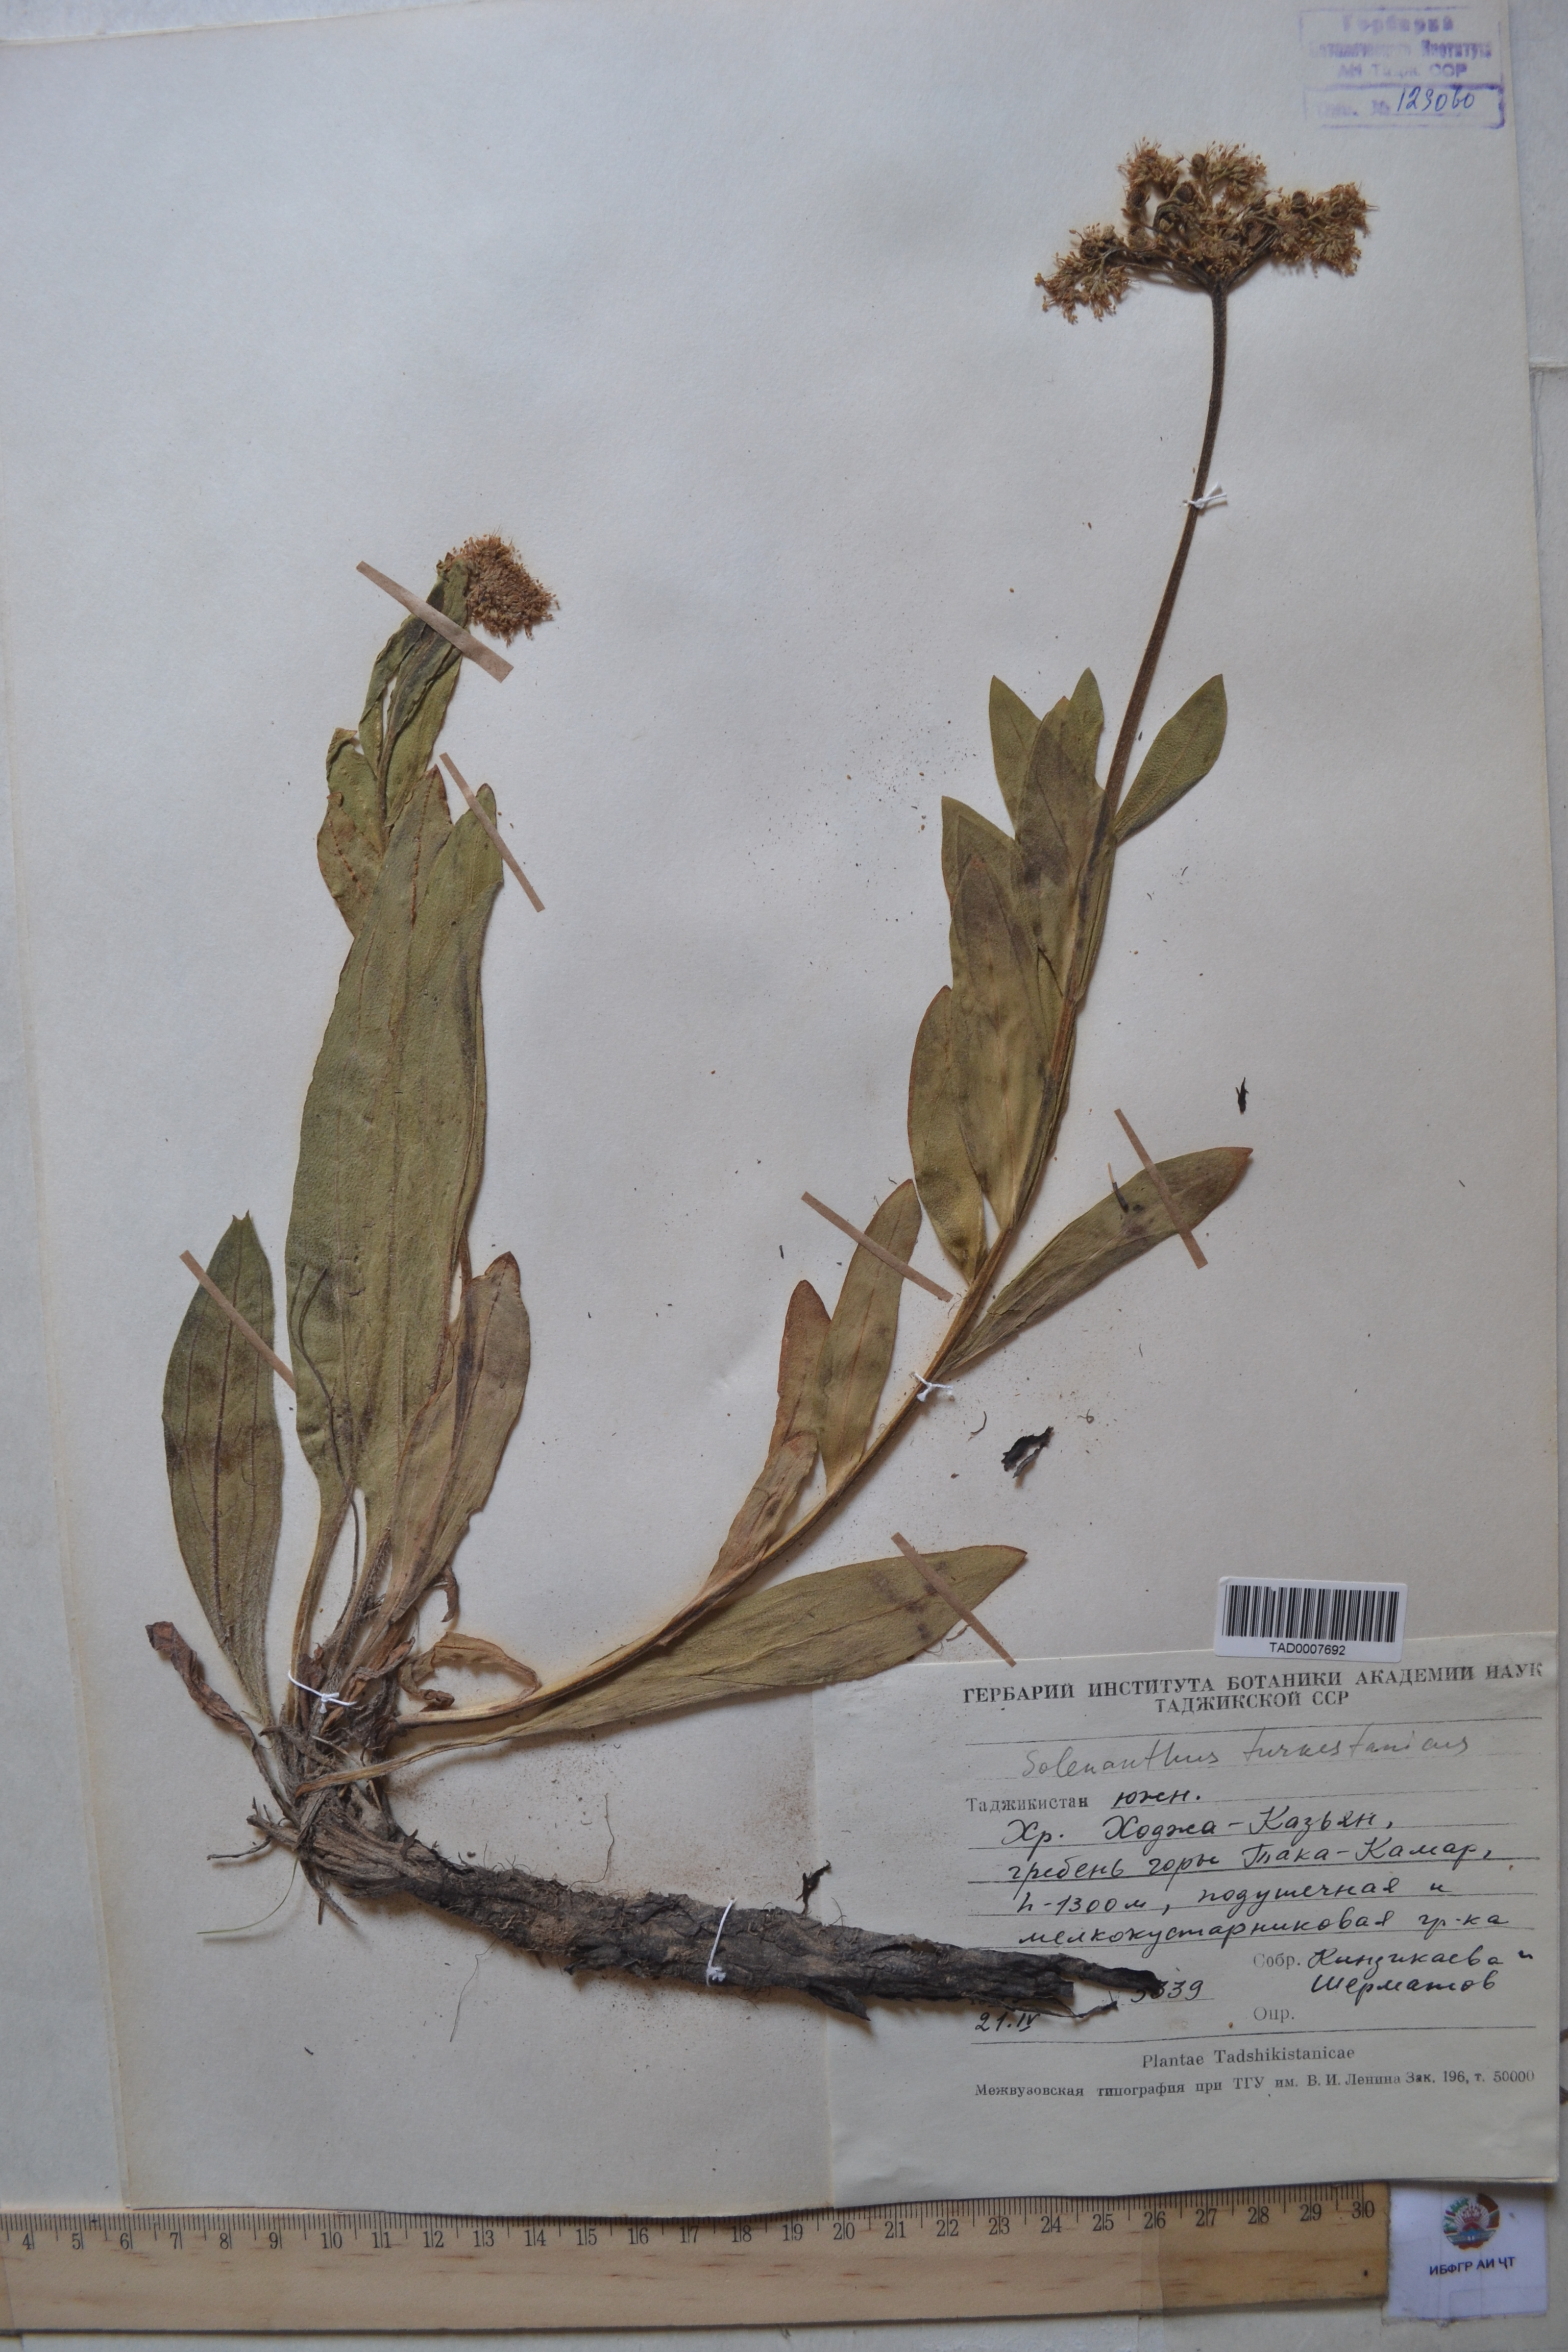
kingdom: Plantae
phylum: Tracheophyta
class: Magnoliopsida
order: Boraginales
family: Boraginaceae
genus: Solenanthus
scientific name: Solenanthus turkestanicus
